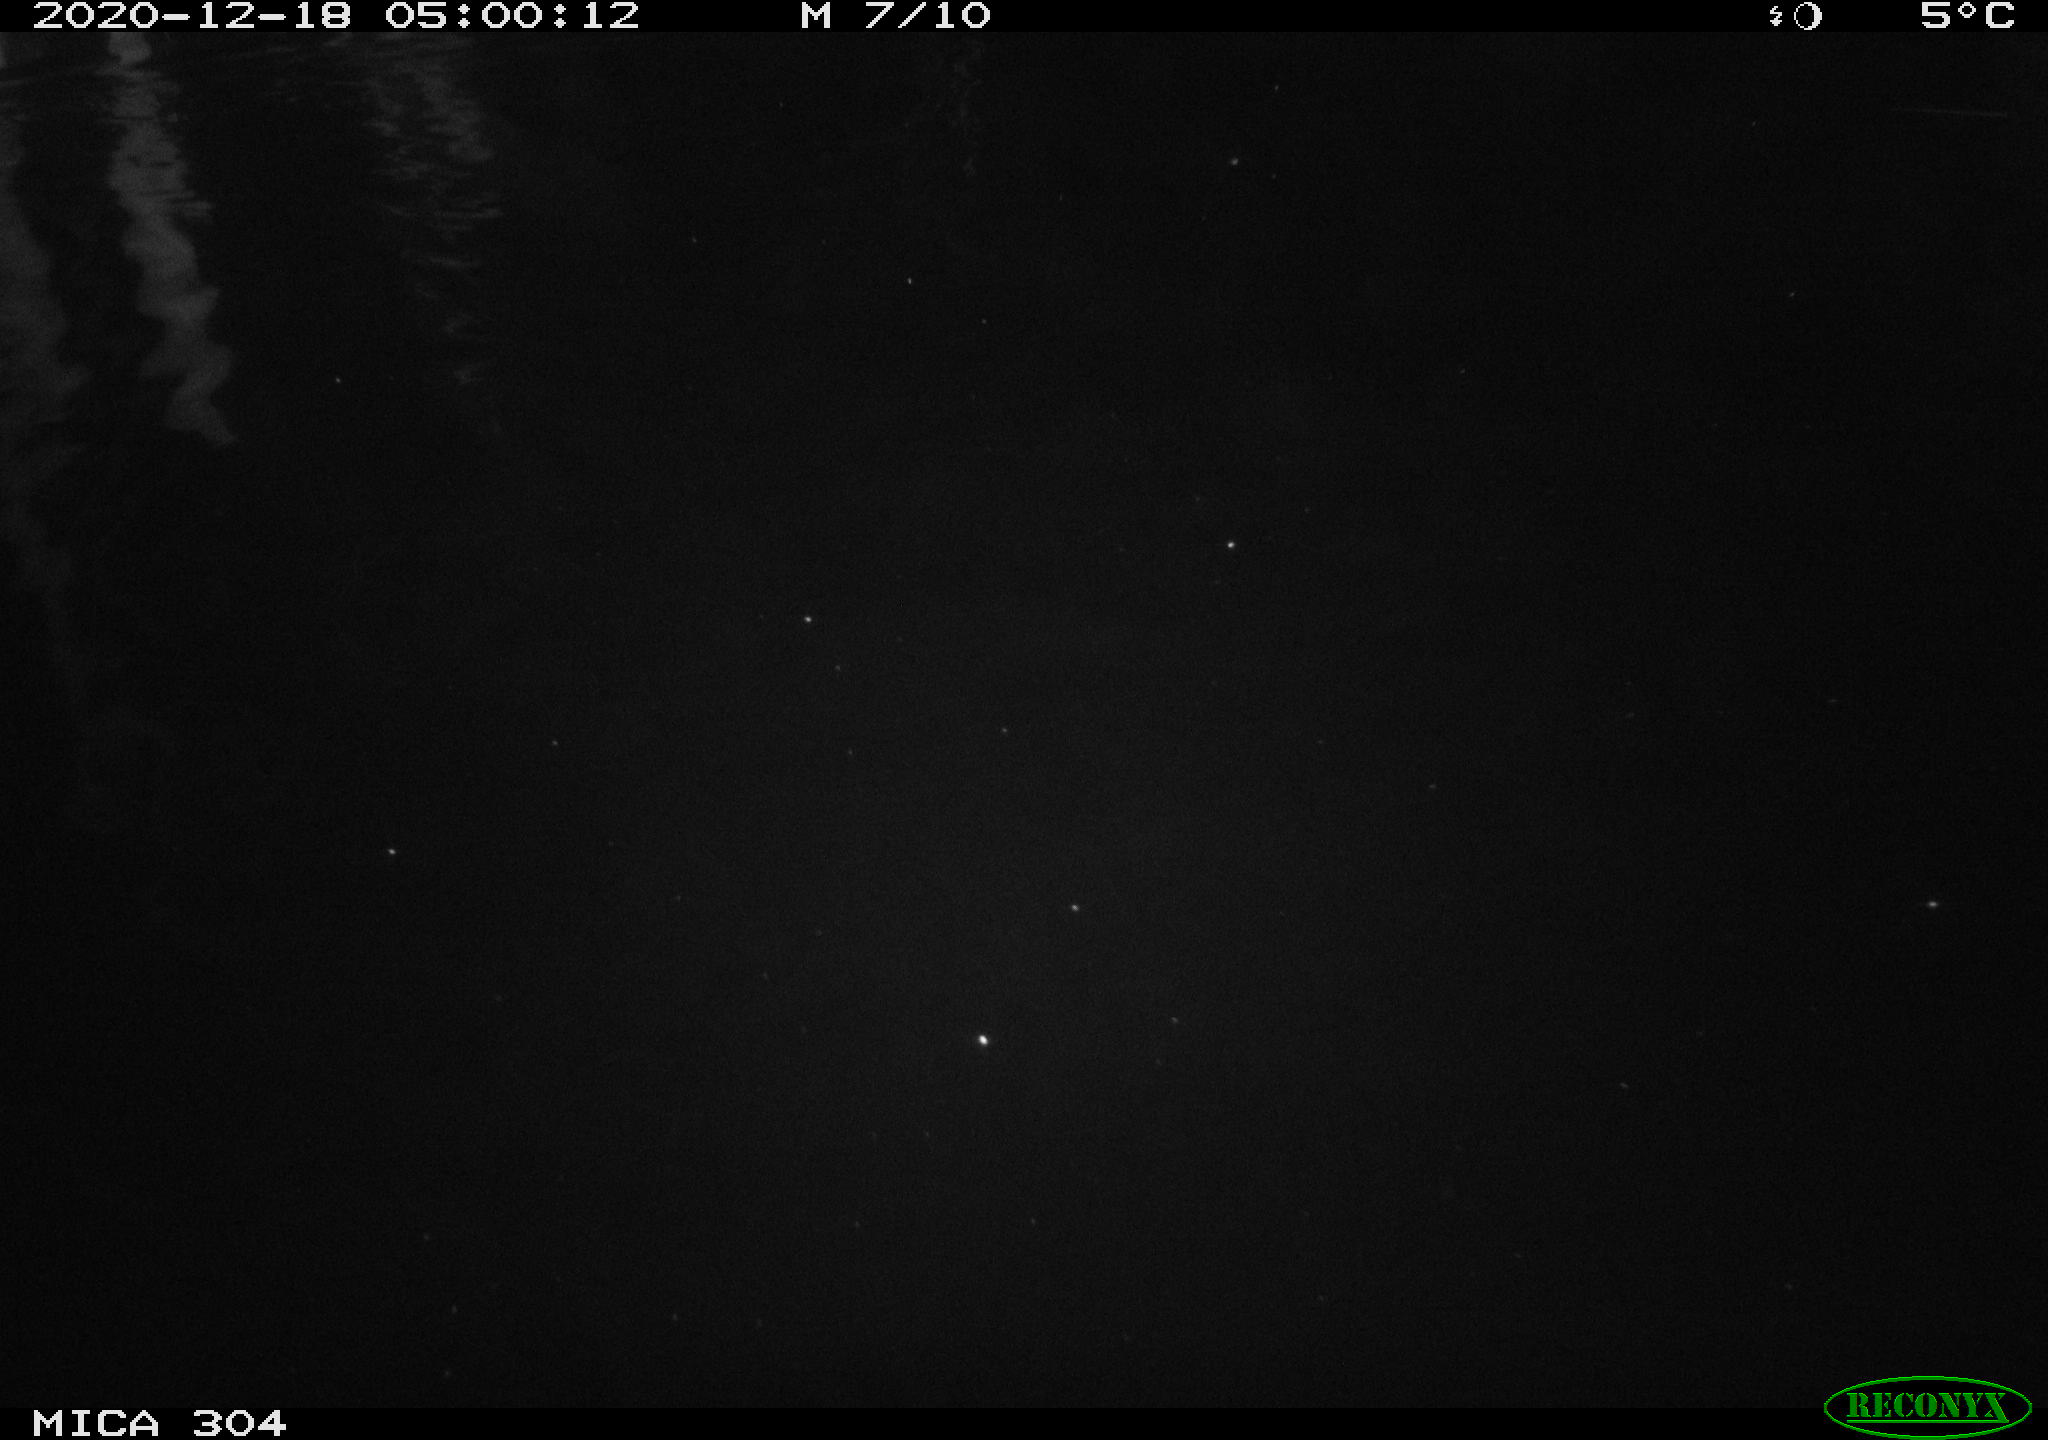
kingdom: Animalia
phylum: Chordata
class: Mammalia
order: Rodentia
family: Muridae
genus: Rattus
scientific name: Rattus norvegicus
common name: Brown rat
